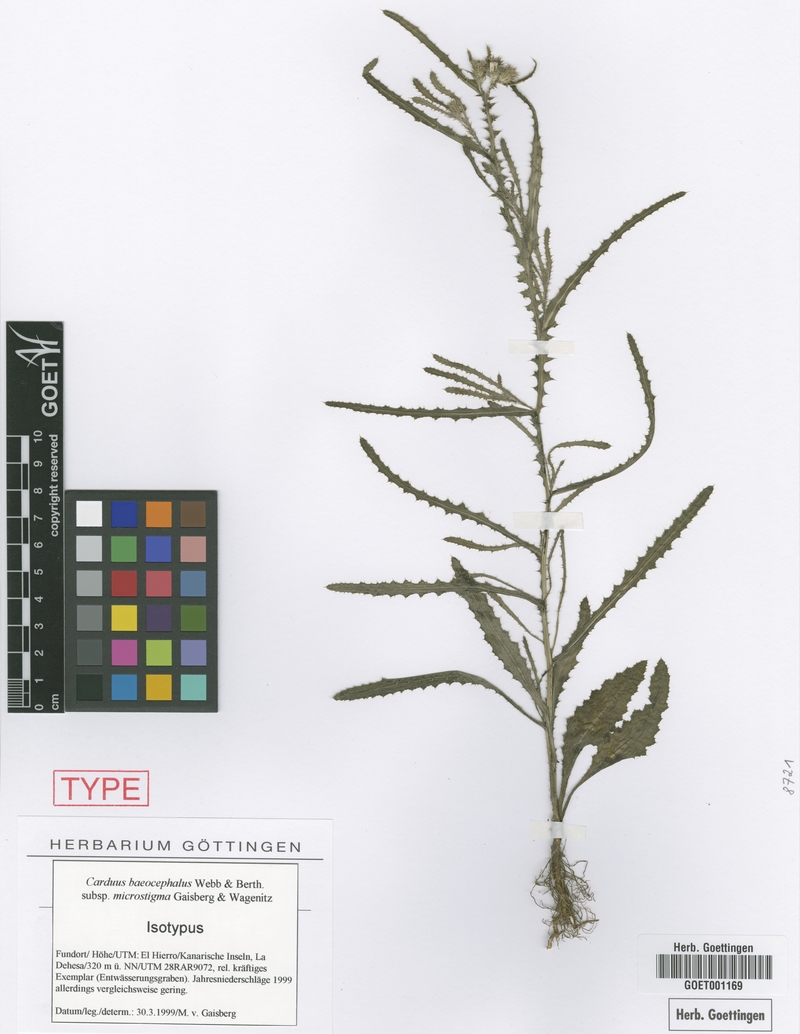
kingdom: Plantae
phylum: Tracheophyta
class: Magnoliopsida
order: Asterales
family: Asteraceae
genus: Carduus
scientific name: Carduus baeocephalus
